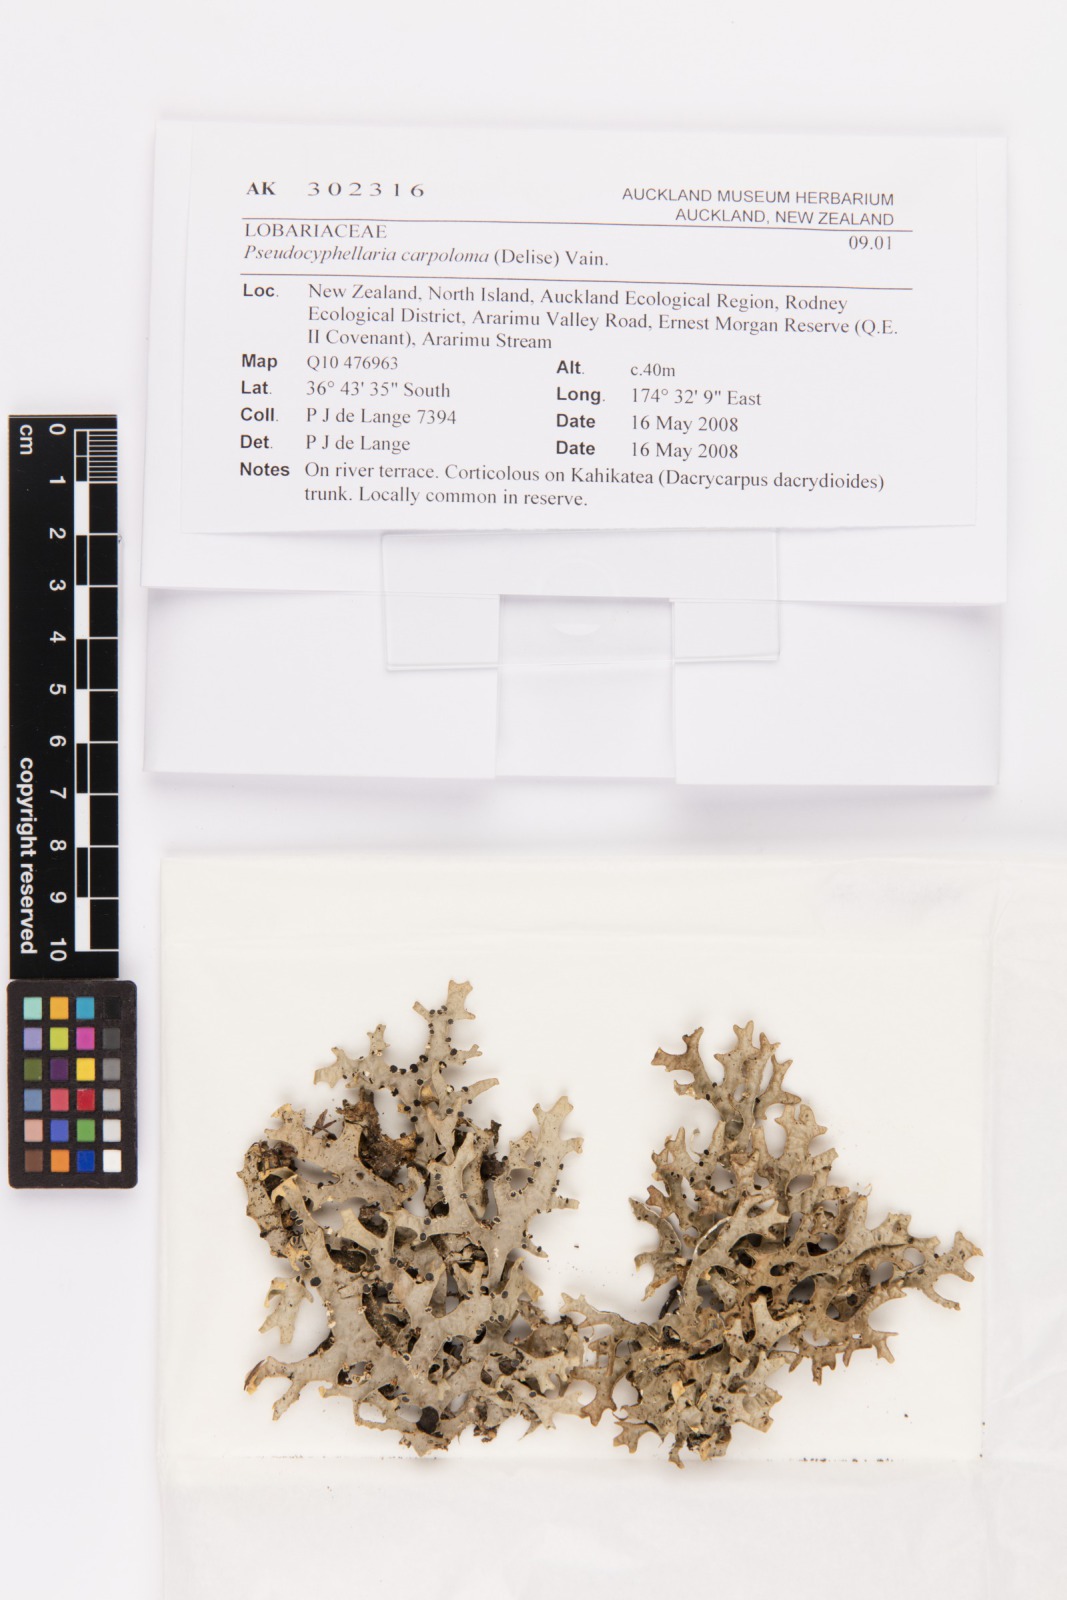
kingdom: Fungi
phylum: Ascomycota
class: Lecanoromycetes
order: Peltigerales
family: Lobariaceae
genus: Pseudocyphellaria
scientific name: Pseudocyphellaria carpoloma
